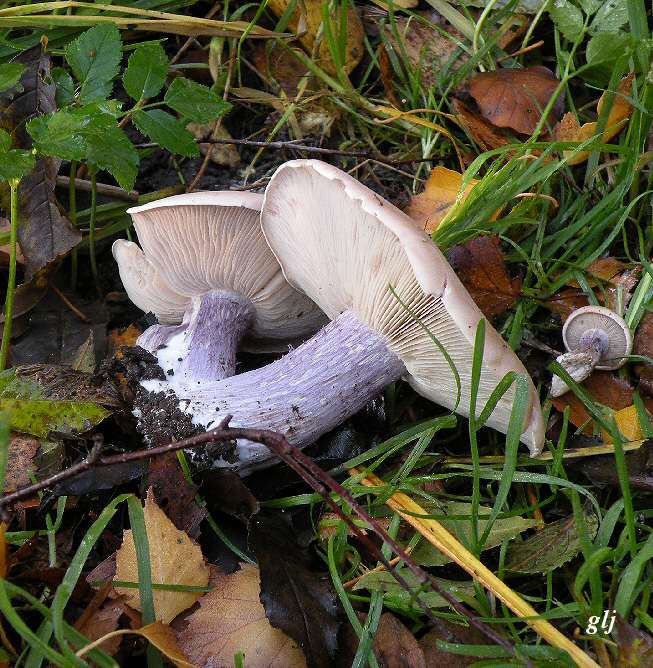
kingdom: Fungi
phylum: Basidiomycota
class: Agaricomycetes
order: Agaricales
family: Tricholomataceae
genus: Lepista
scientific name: Lepista personata
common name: bleg hekseringshat
